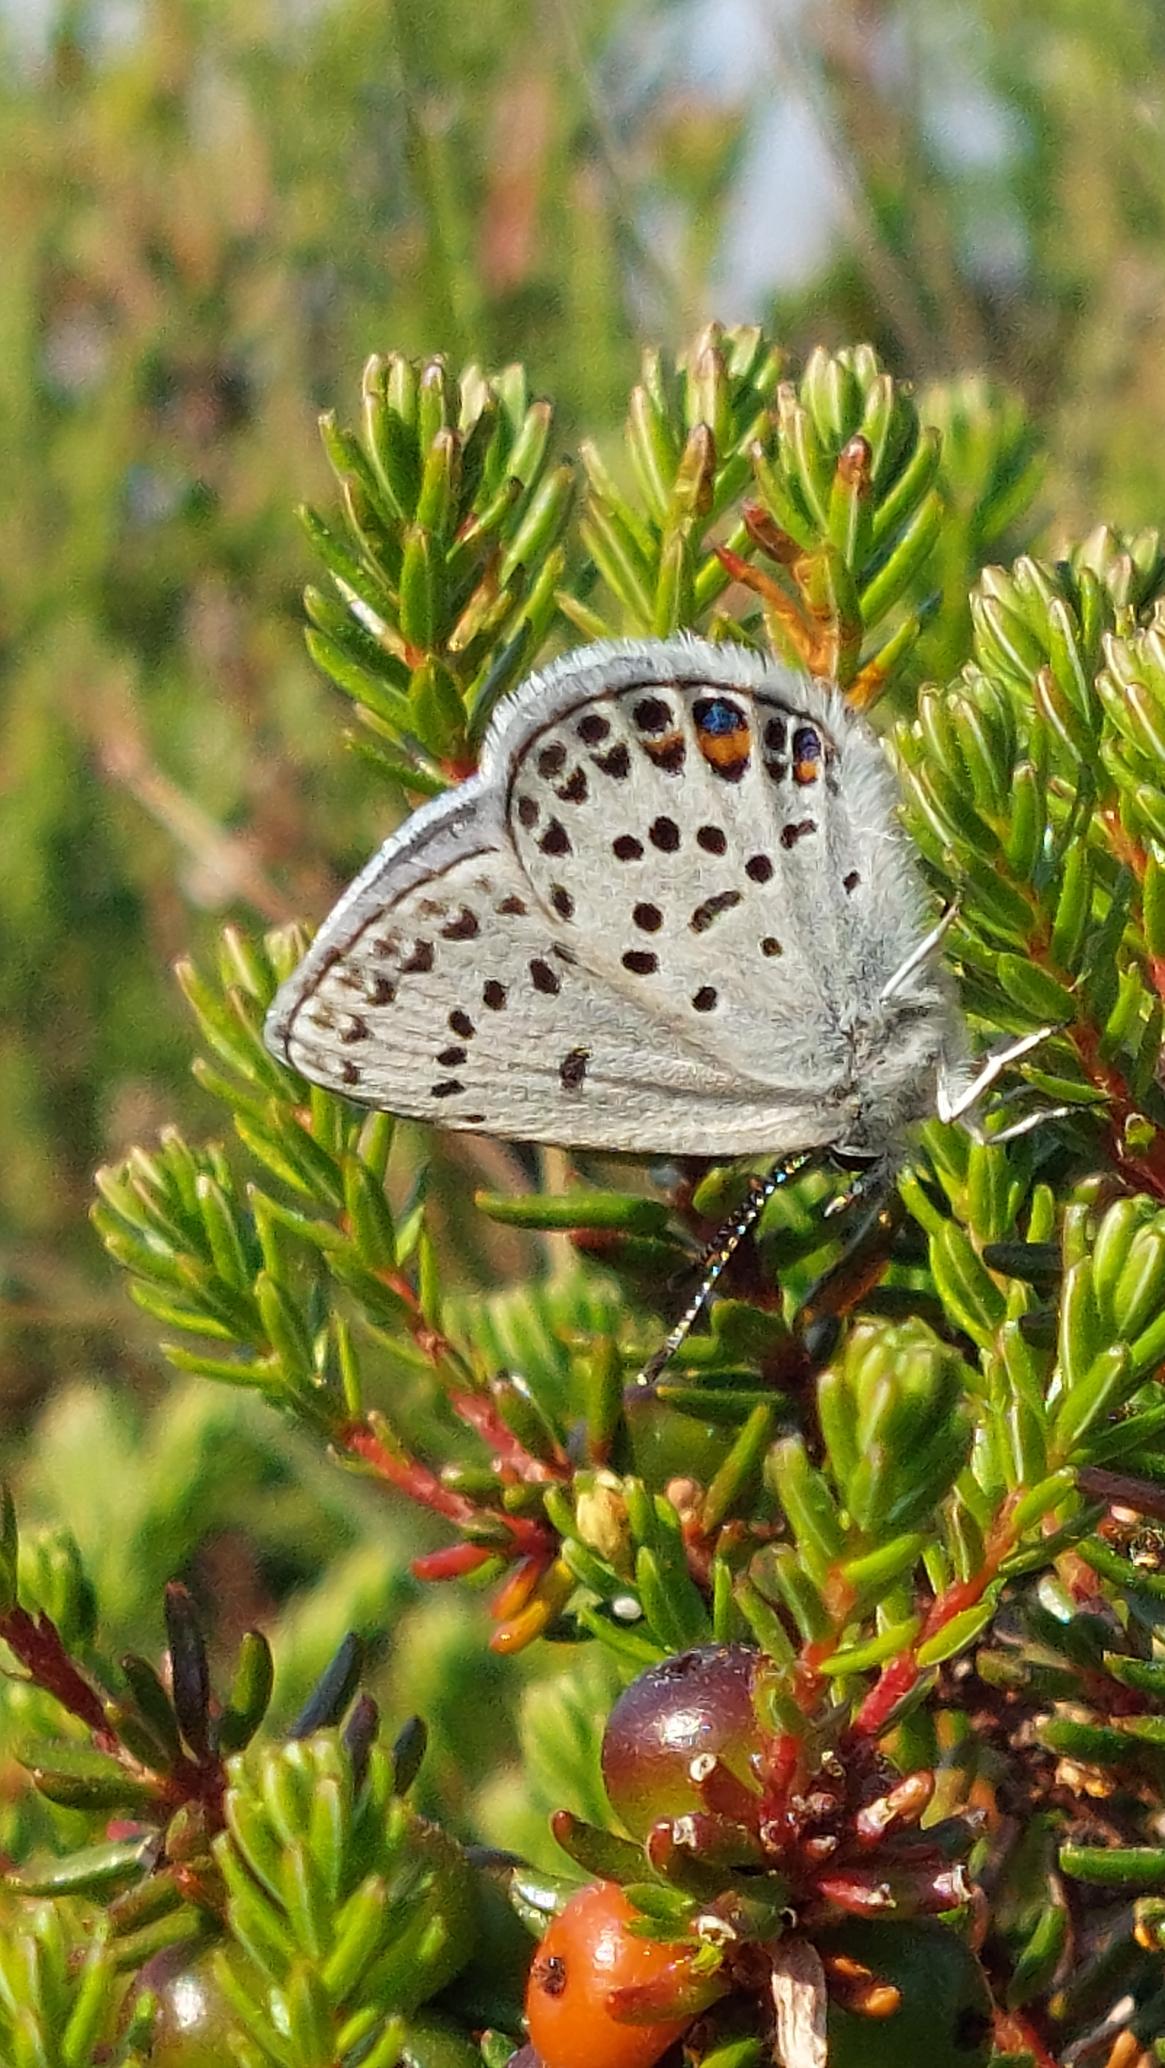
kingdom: Animalia
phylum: Arthropoda
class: Insecta
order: Lepidoptera
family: Lycaenidae
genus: Vacciniina
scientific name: Vacciniina optilete
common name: Bølleblåfugl
